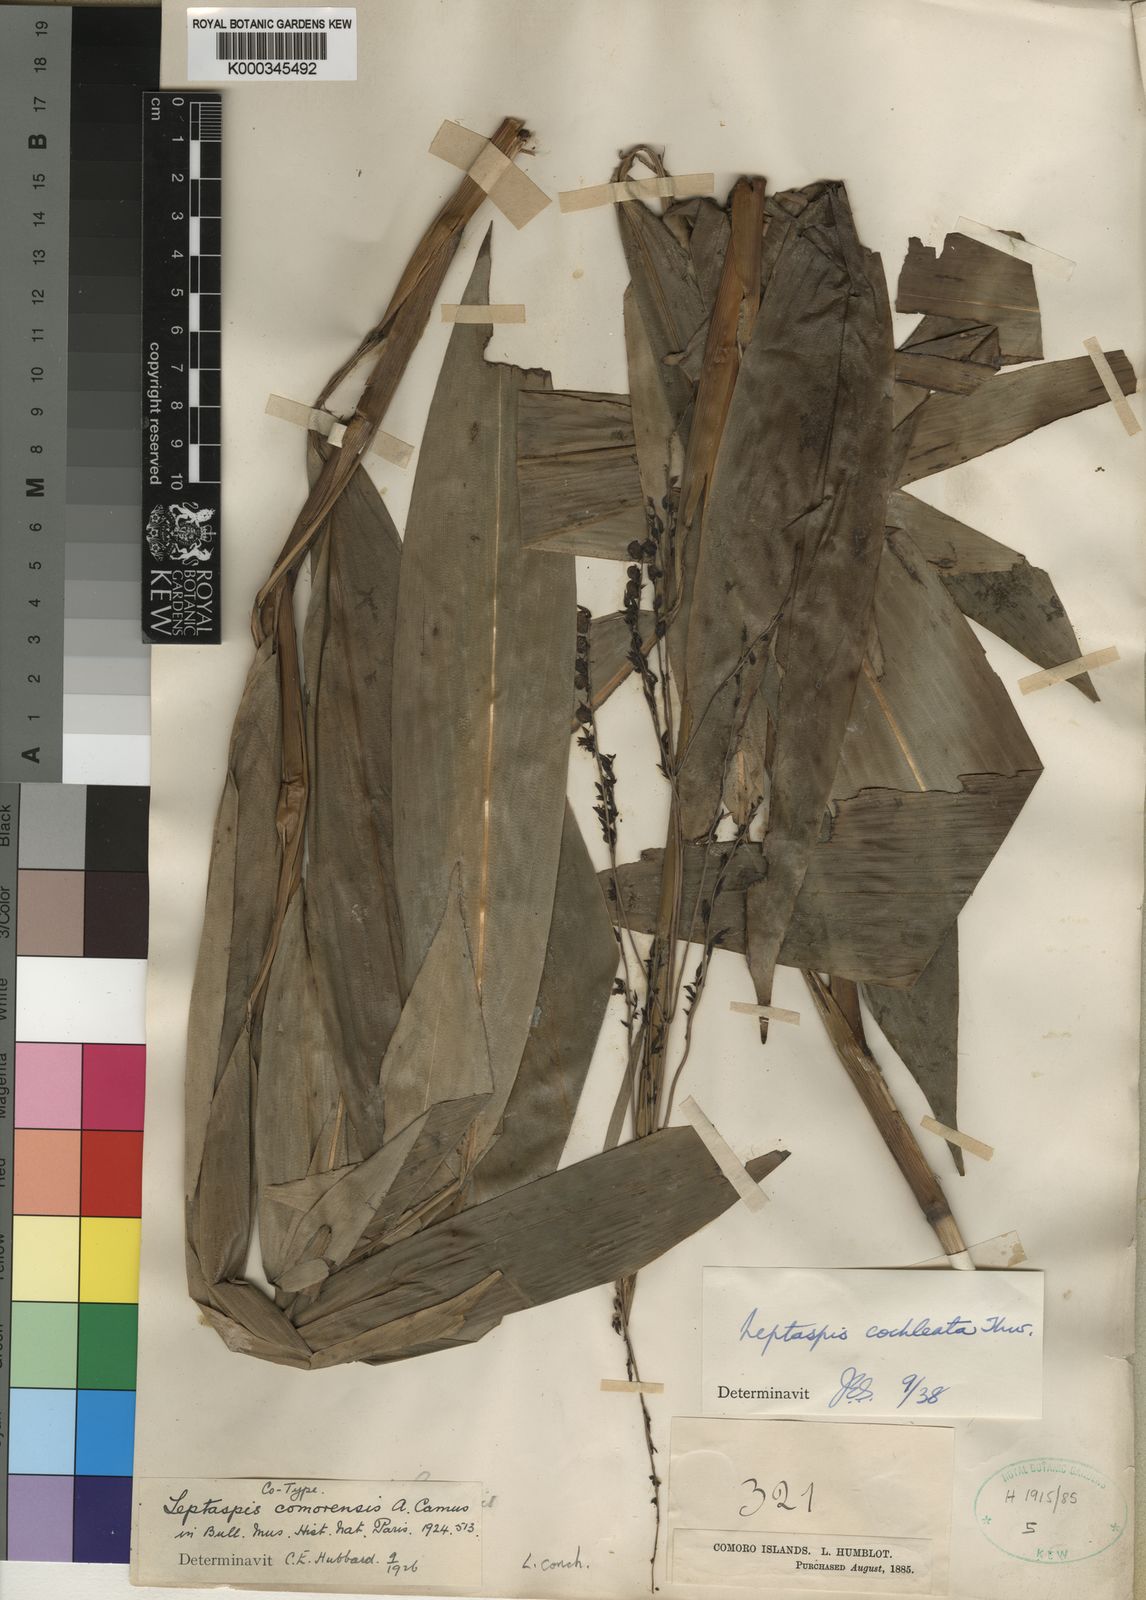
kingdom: Plantae
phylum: Tracheophyta
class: Liliopsida
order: Poales
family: Poaceae
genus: Leptaspis
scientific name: Leptaspis zeylanica
